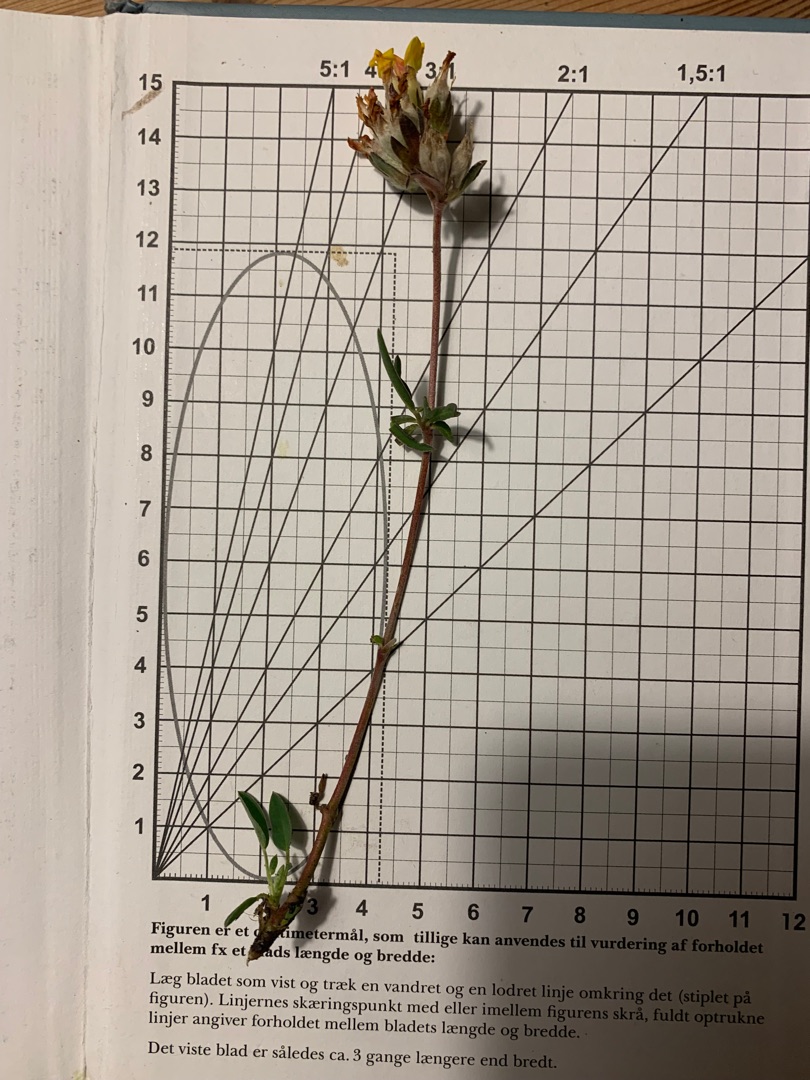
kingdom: Plantae
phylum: Tracheophyta
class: Magnoliopsida
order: Fabales
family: Fabaceae
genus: Anthyllis
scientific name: Anthyllis vulneraria
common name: Rundbælg
